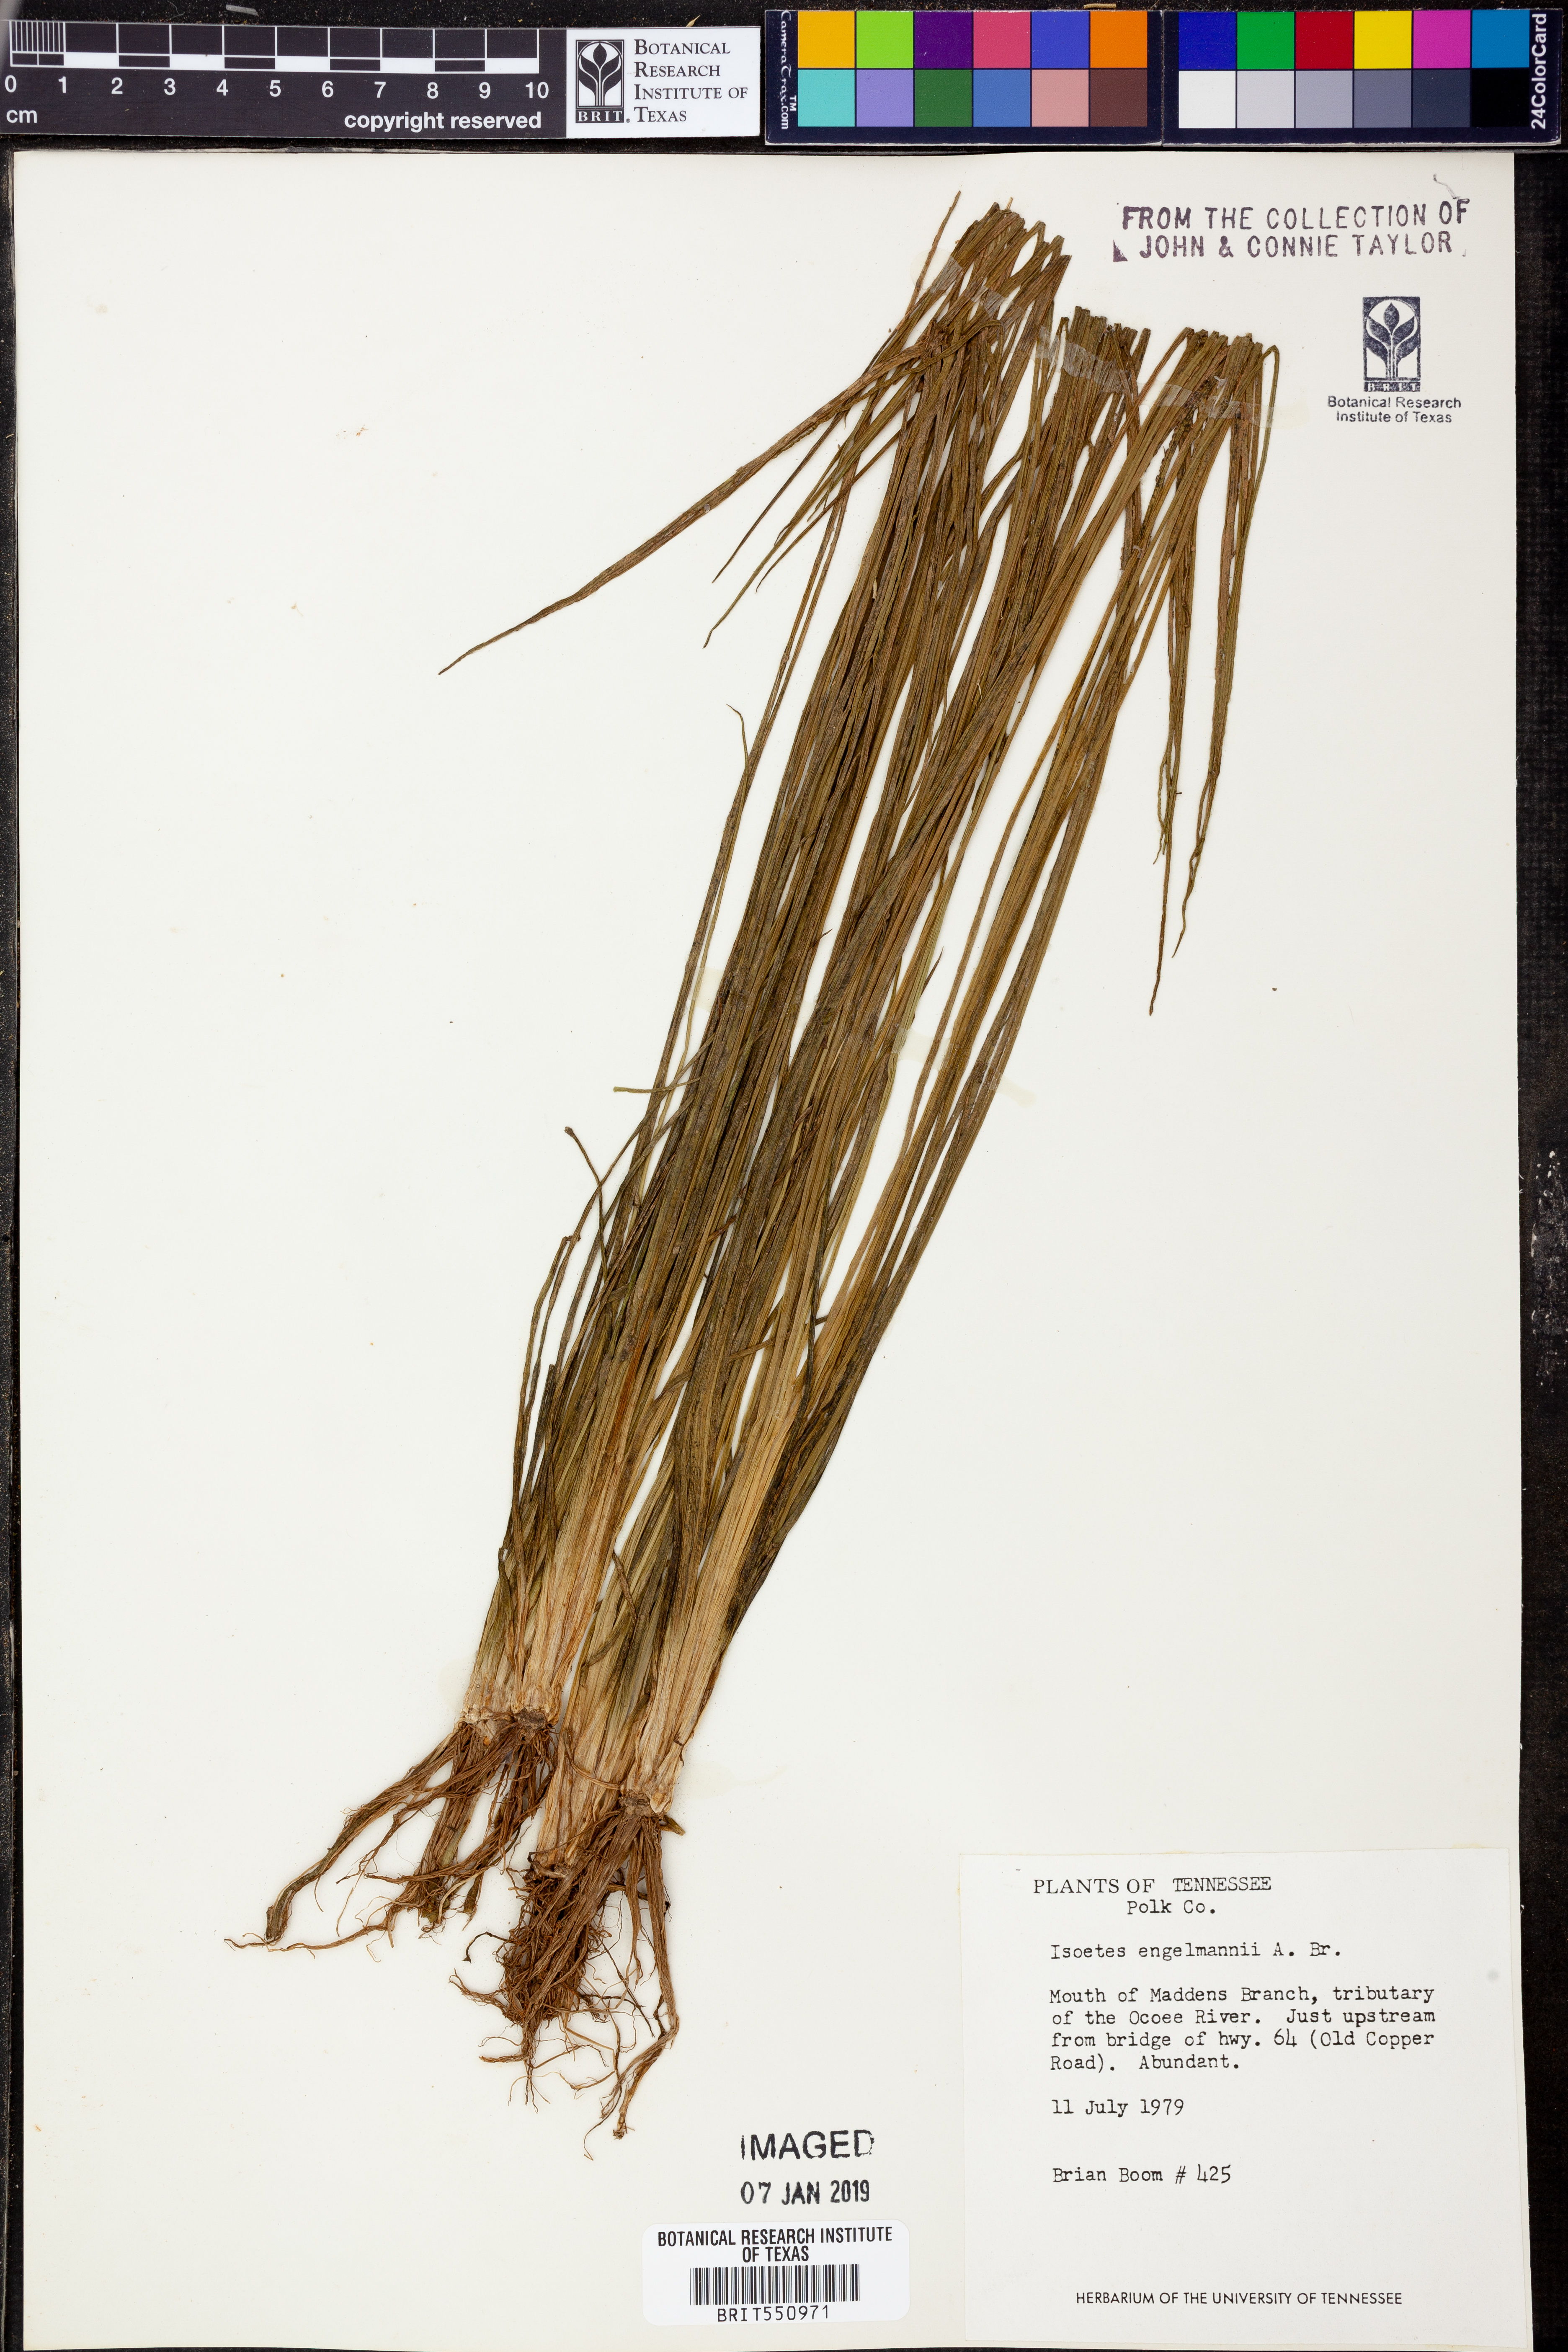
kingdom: Plantae
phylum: Tracheophyta
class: Lycopodiopsida
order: Isoetales
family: Isoetaceae
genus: Isoetes
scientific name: Isoetes engelmannii
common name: Engelmann's quillwort
